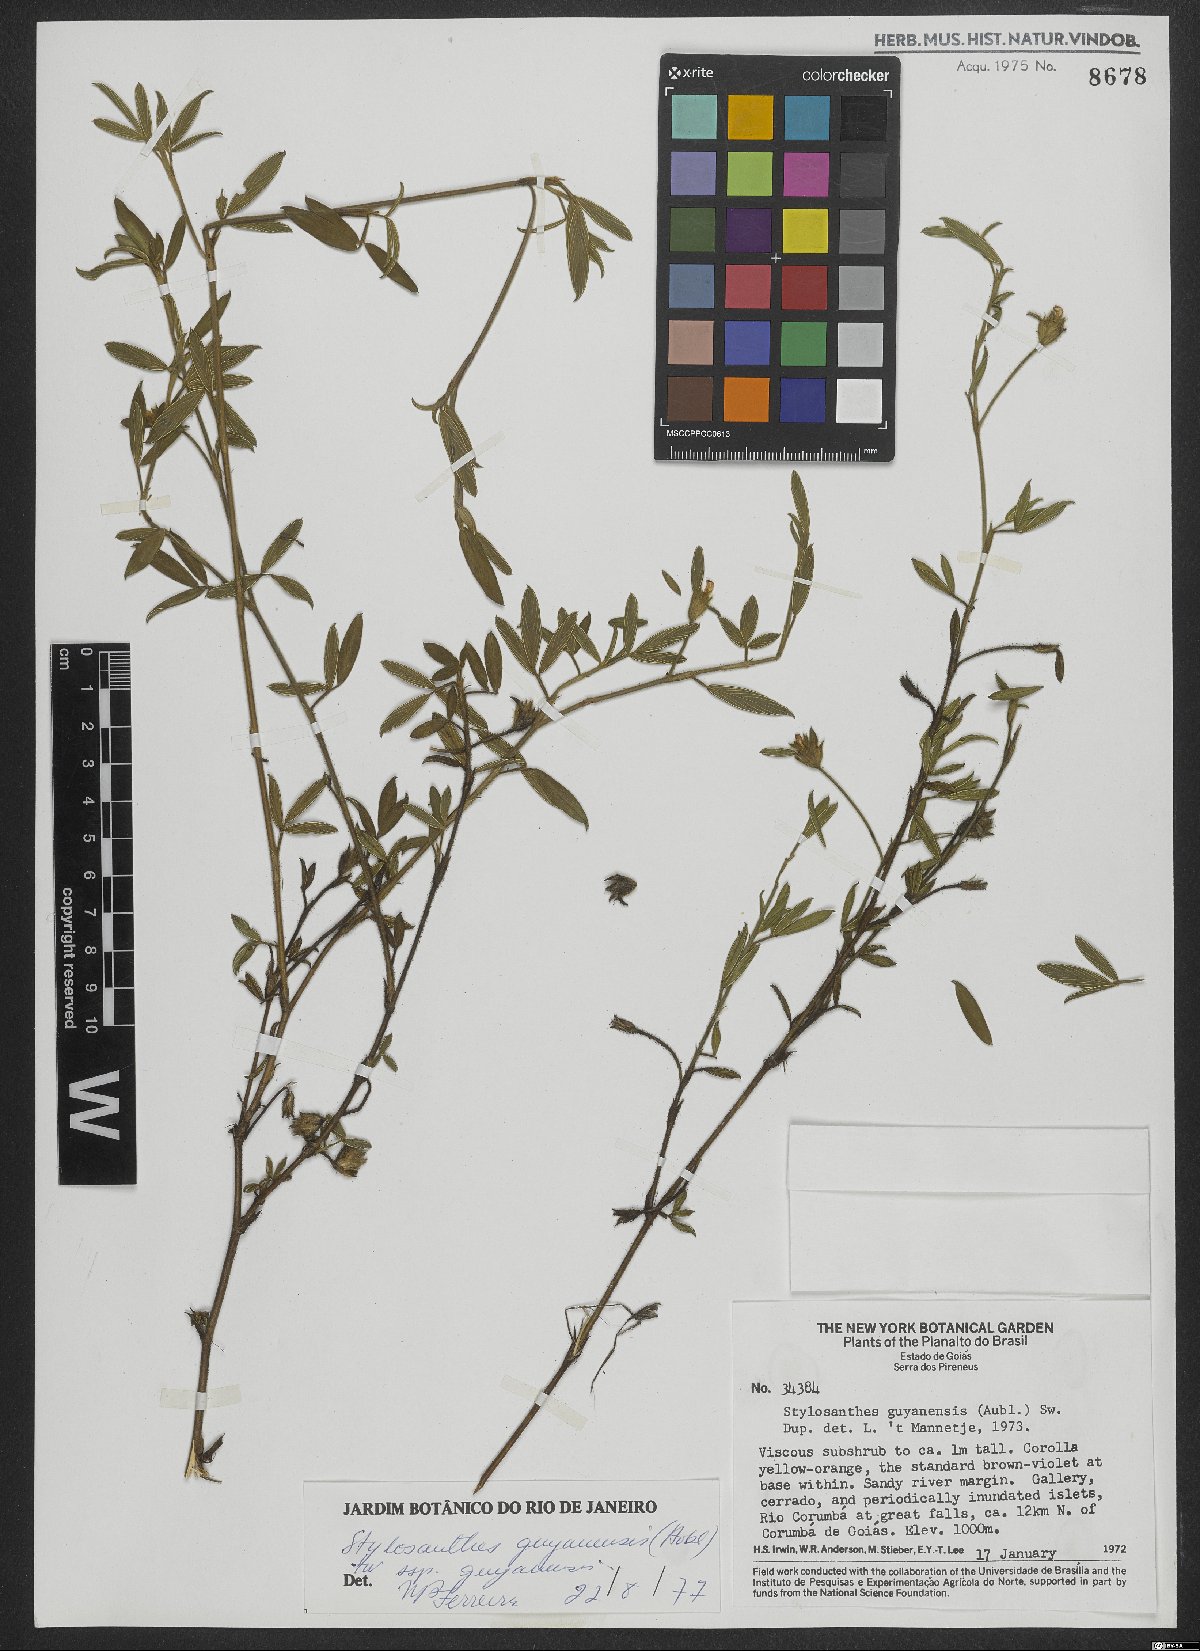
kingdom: Plantae
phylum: Tracheophyta
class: Magnoliopsida
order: Fabales
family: Fabaceae
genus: Stylosanthes
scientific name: Stylosanthes guianensis
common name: Pencil flower
